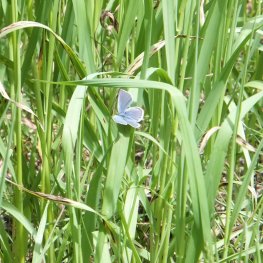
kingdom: Animalia
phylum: Arthropoda
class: Insecta
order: Lepidoptera
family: Lycaenidae
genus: Celastrina
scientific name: Celastrina ladon
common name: Echo Azure
